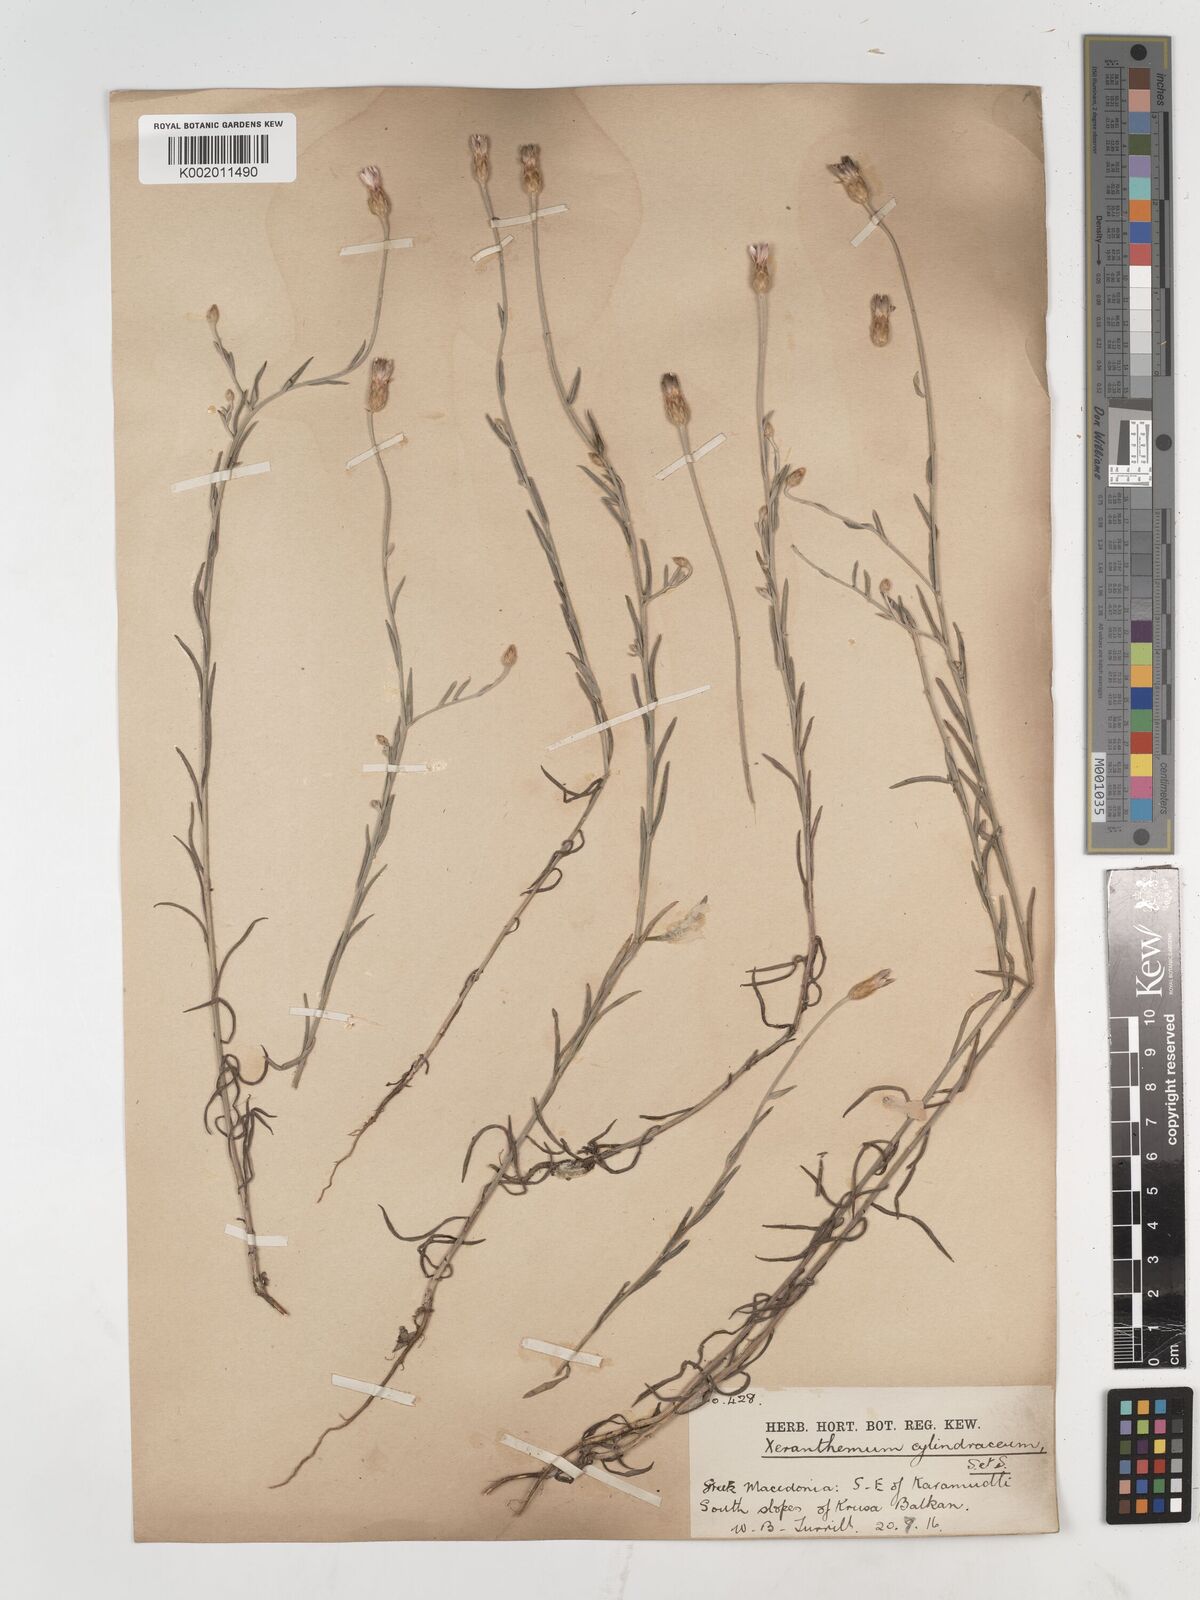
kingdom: Plantae
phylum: Tracheophyta
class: Magnoliopsida
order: Asterales
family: Asteraceae
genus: Xeranthemum
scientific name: Xeranthemum
